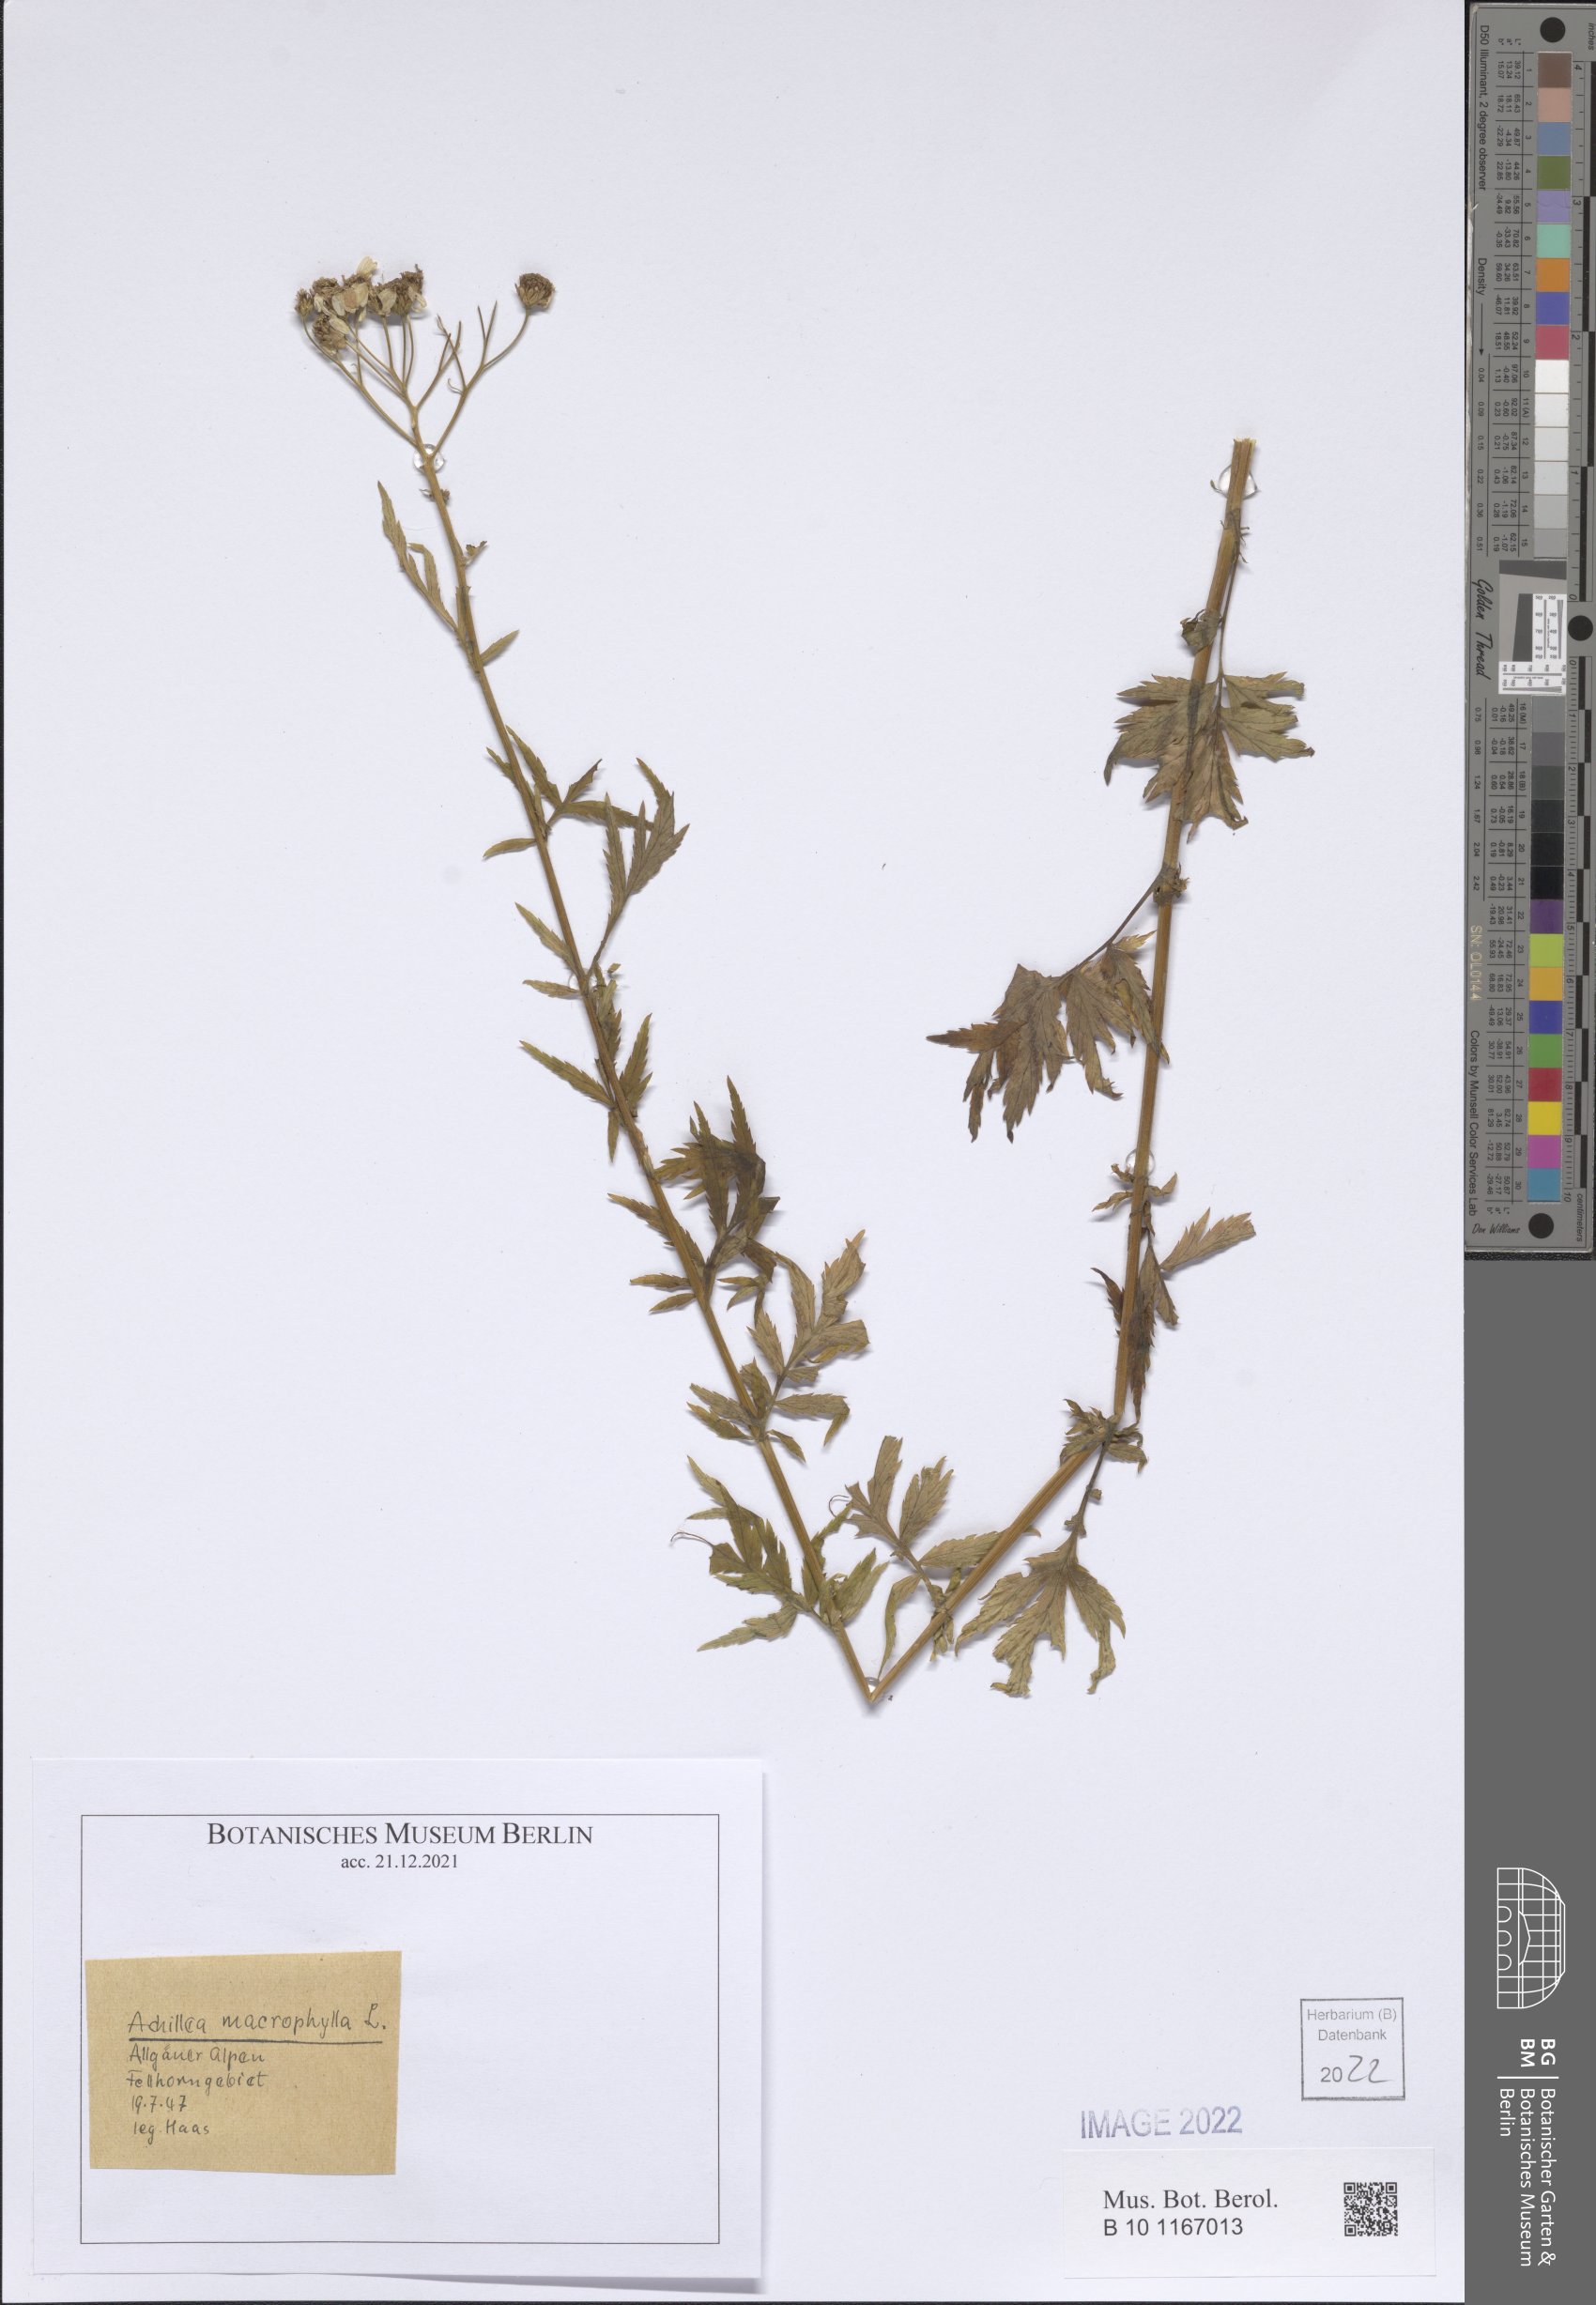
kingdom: Plantae
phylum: Tracheophyta
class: Magnoliopsida
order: Asterales
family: Asteraceae
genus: Achillea
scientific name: Achillea macrophylla
